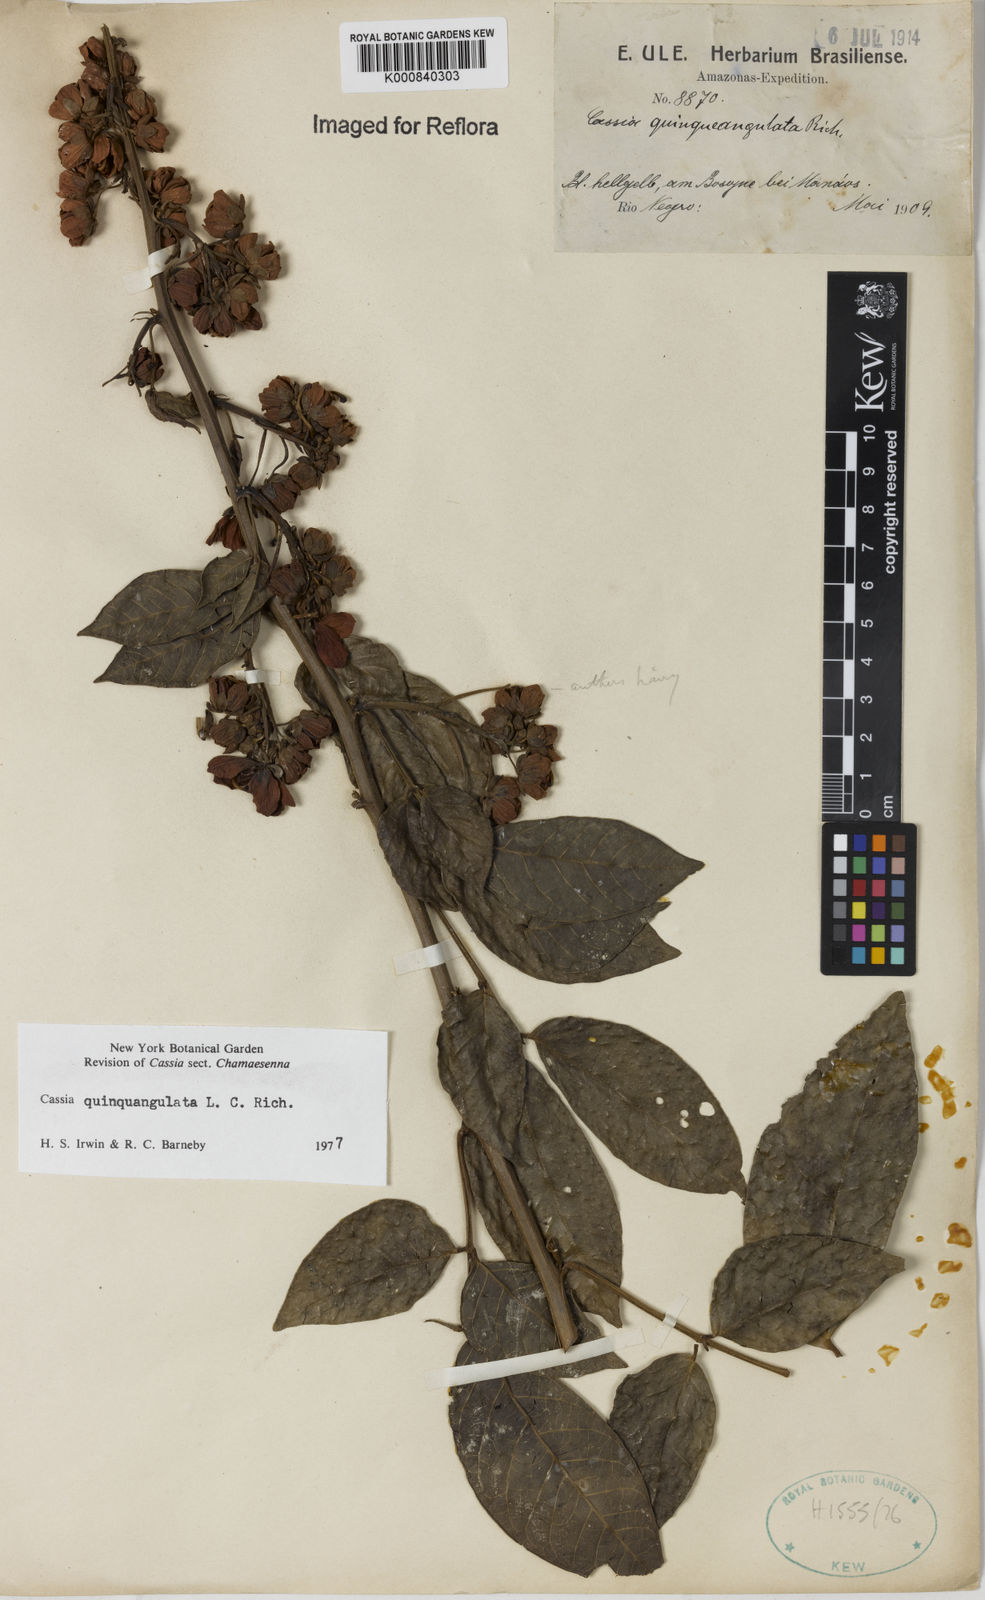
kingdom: Plantae
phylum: Tracheophyta
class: Magnoliopsida
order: Fabales
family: Fabaceae
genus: Senna
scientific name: Senna
